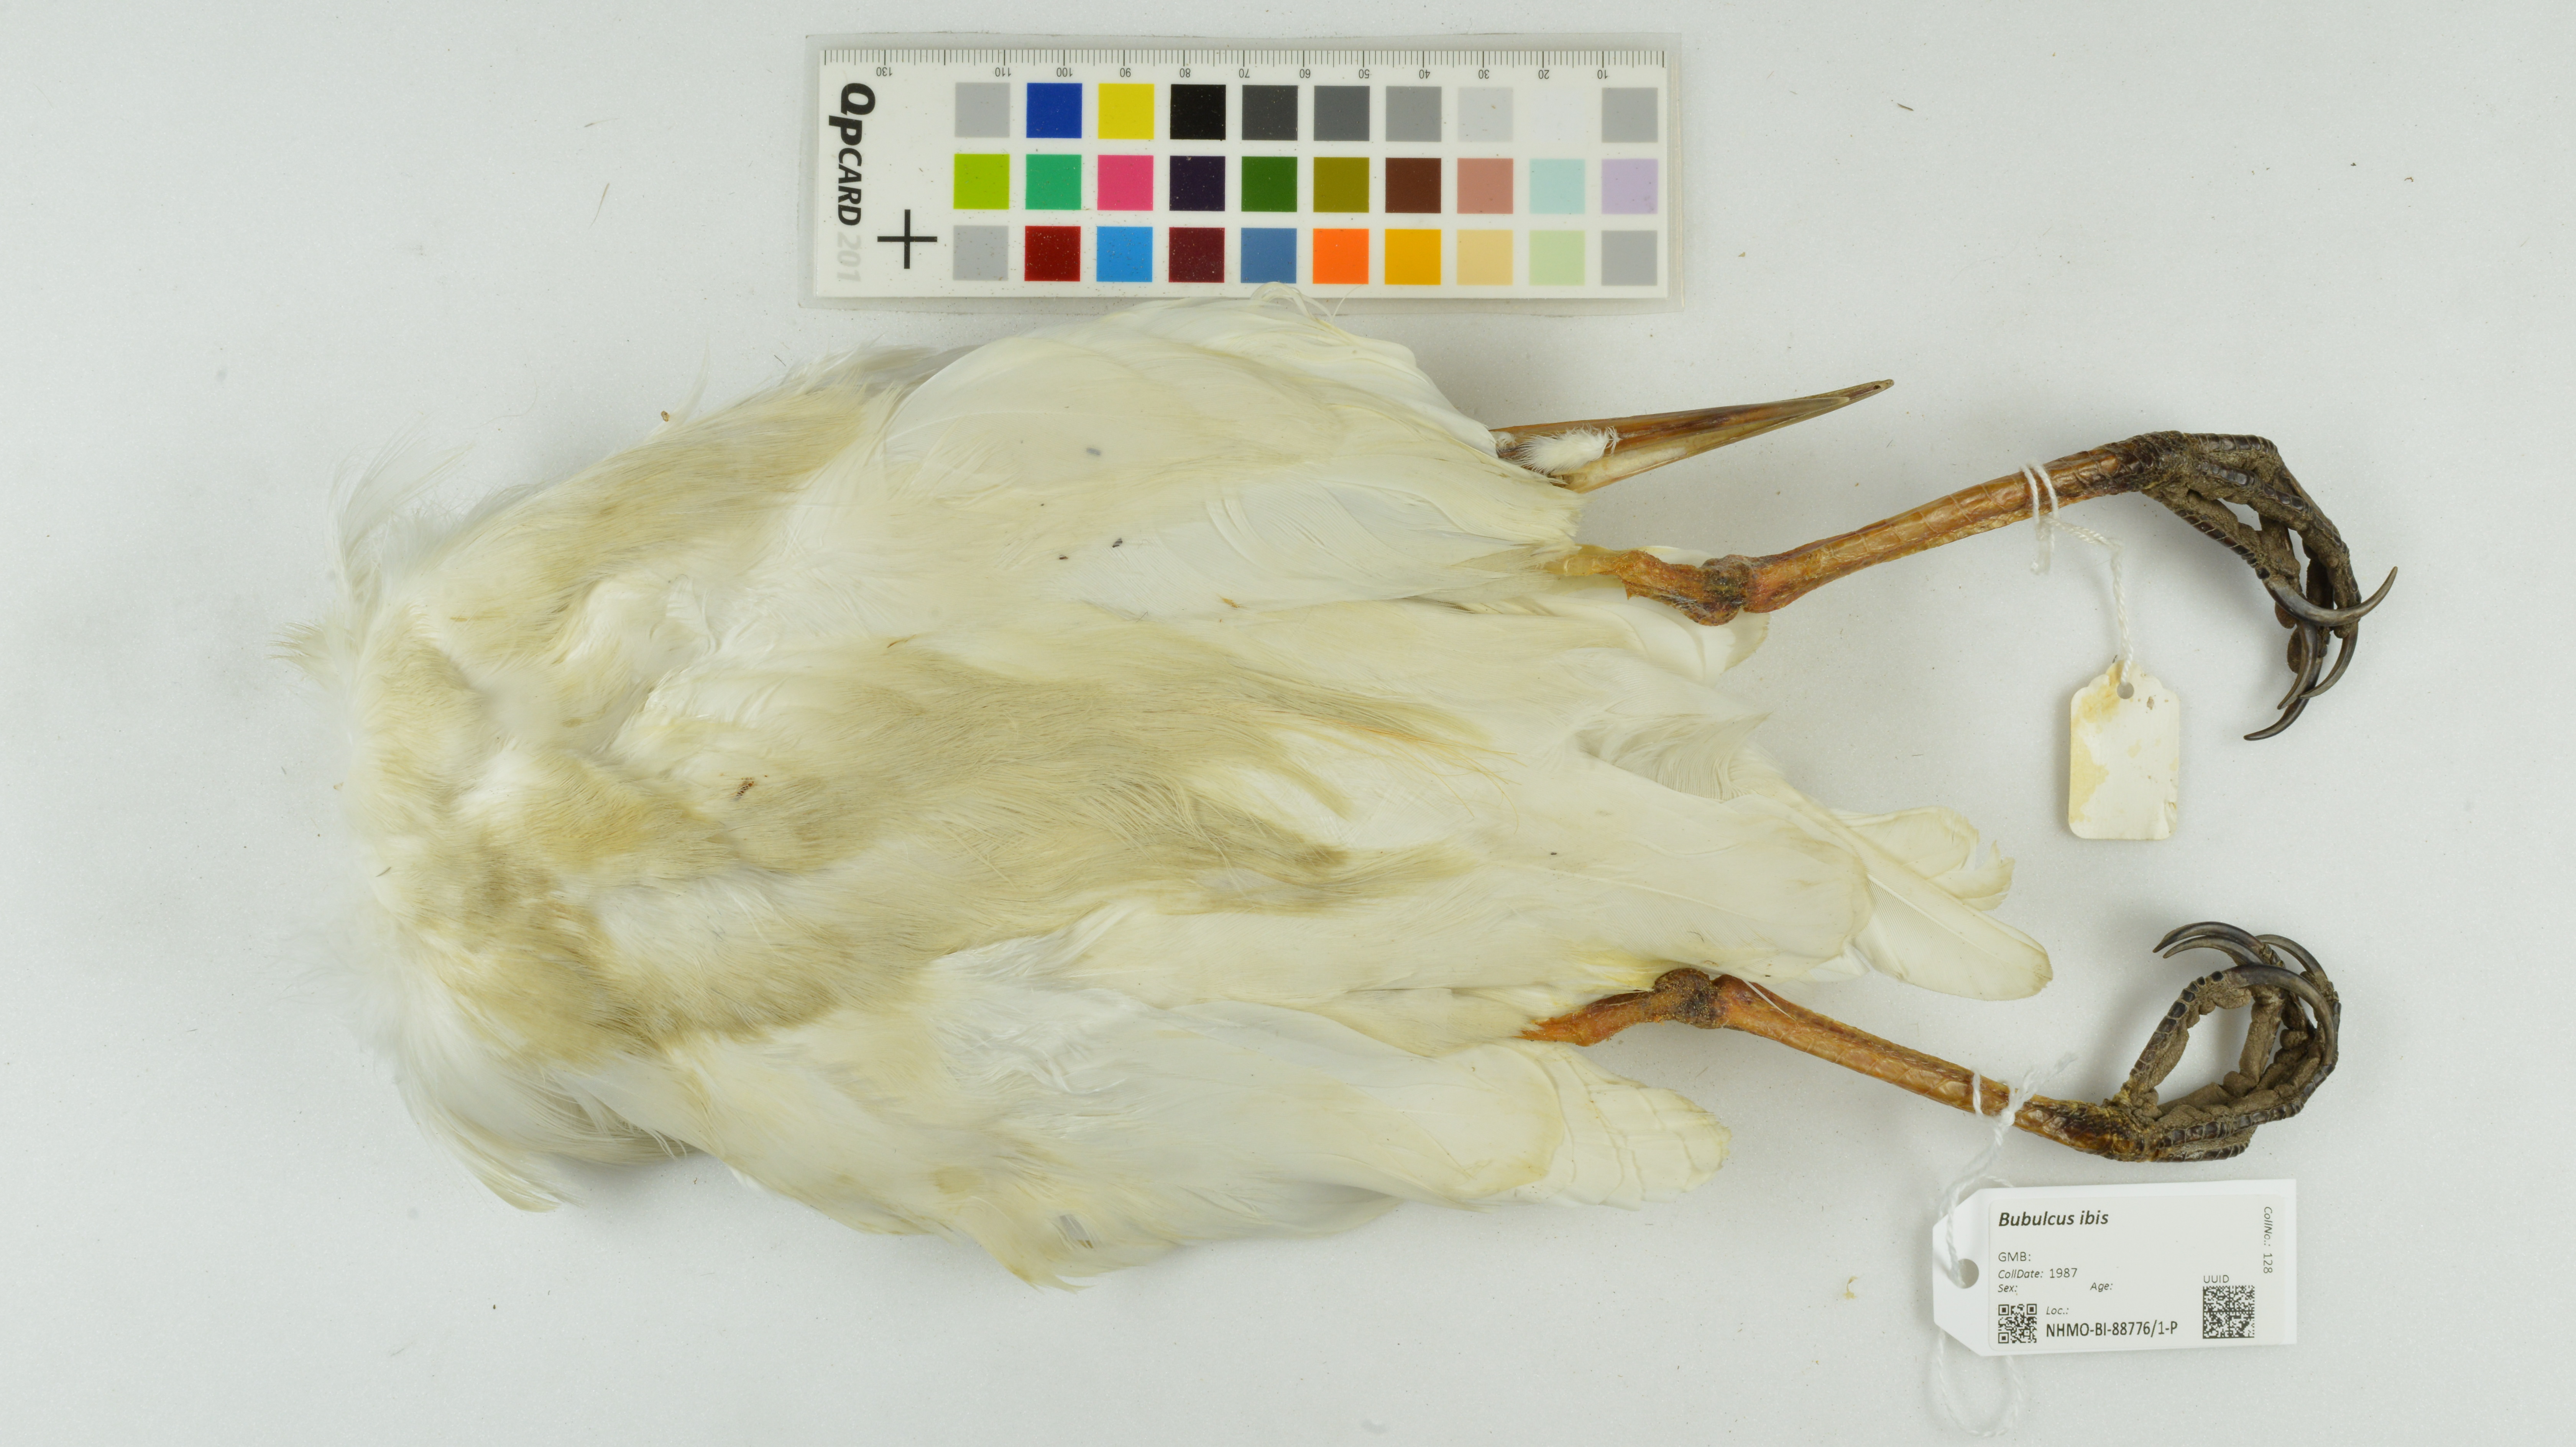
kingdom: Animalia
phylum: Chordata
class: Aves
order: Pelecaniformes
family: Ardeidae
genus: Bubulcus
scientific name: Bubulcus ibis
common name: Cattle egret
